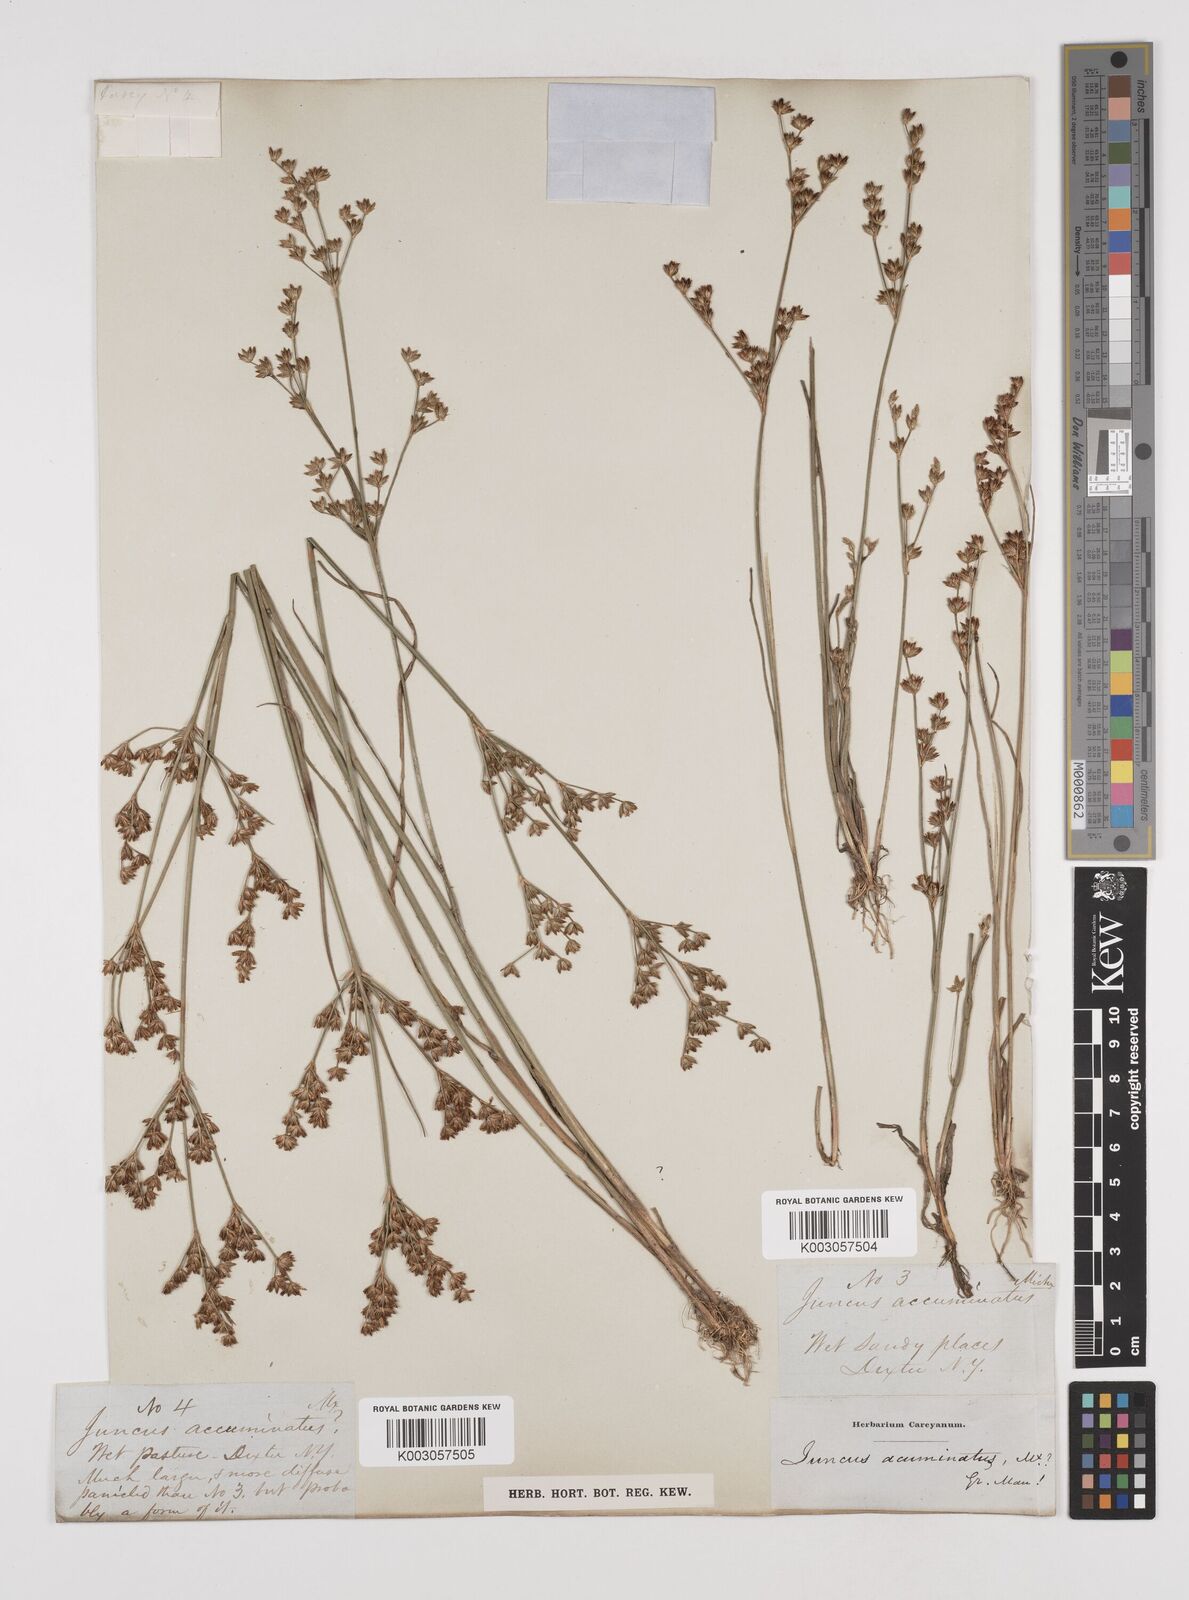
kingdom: Plantae
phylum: Tracheophyta
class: Liliopsida
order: Poales
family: Juncaceae
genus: Juncus
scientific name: Juncus debilis
